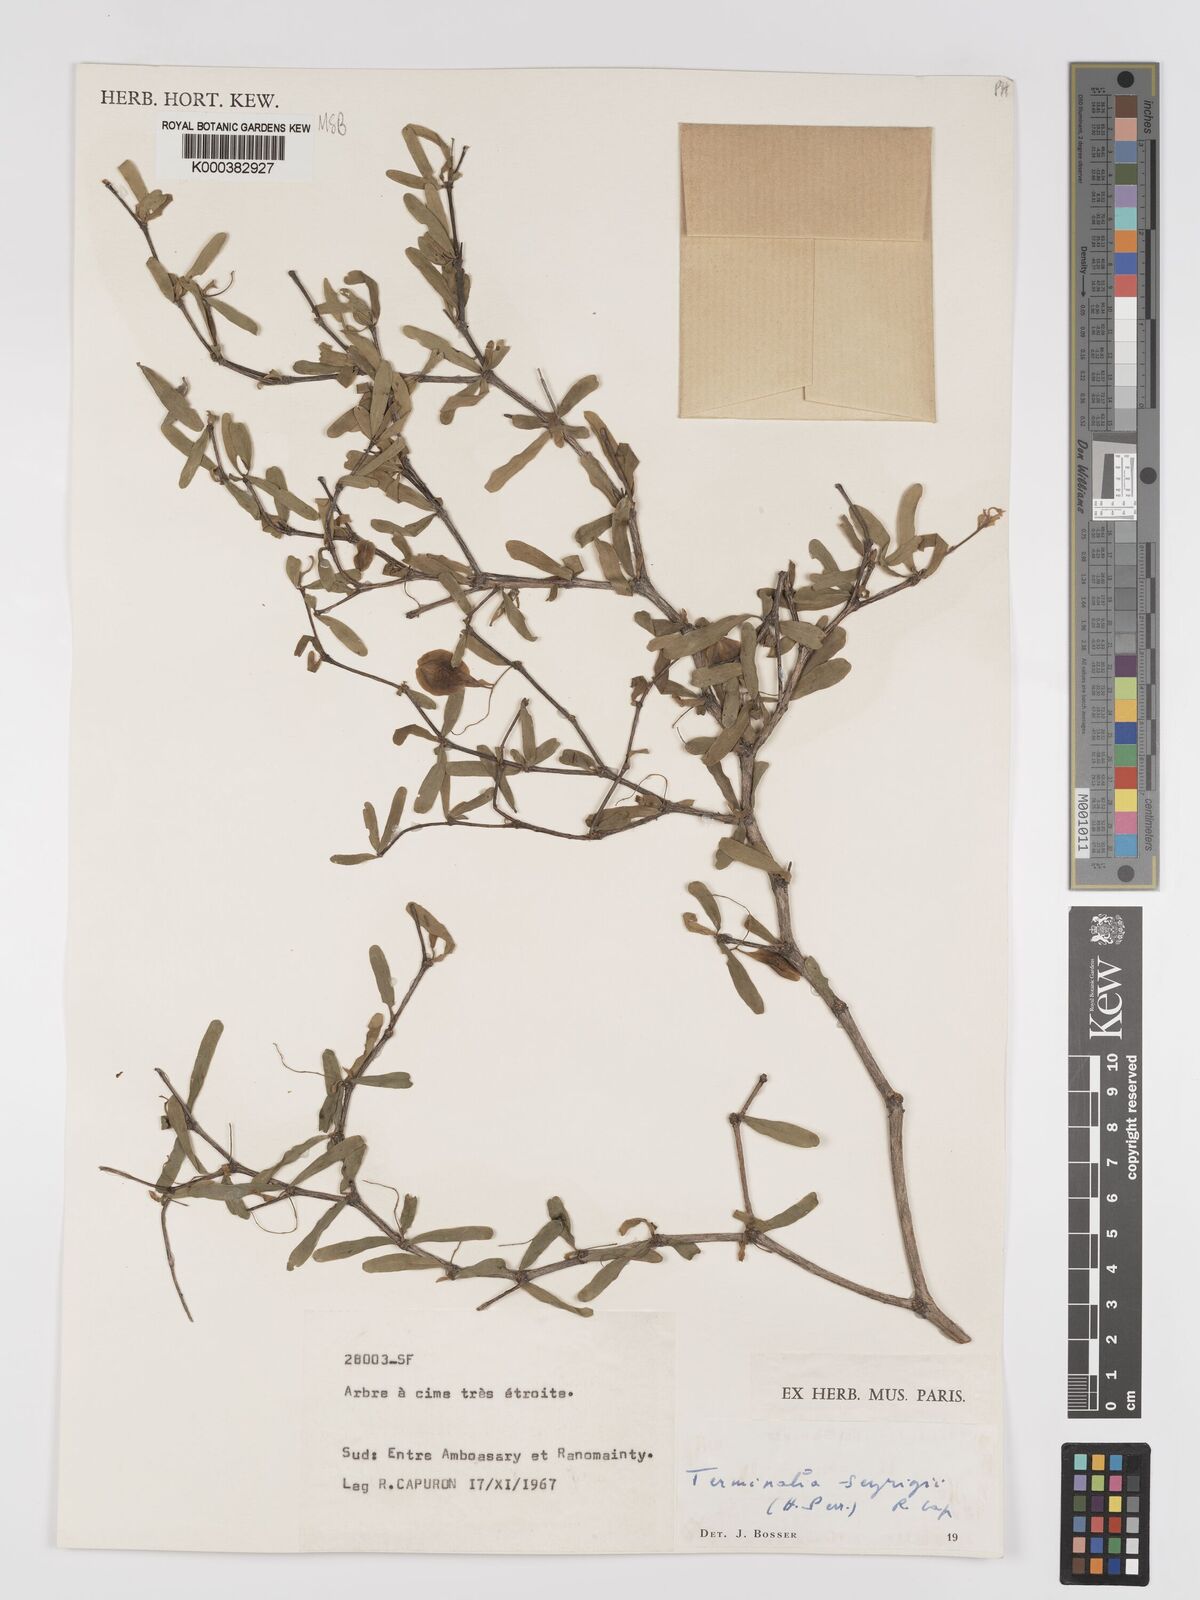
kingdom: Plantae
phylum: Tracheophyta
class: Magnoliopsida
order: Myrtales
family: Combretaceae
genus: Terminalia
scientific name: Terminalia seyrigii
